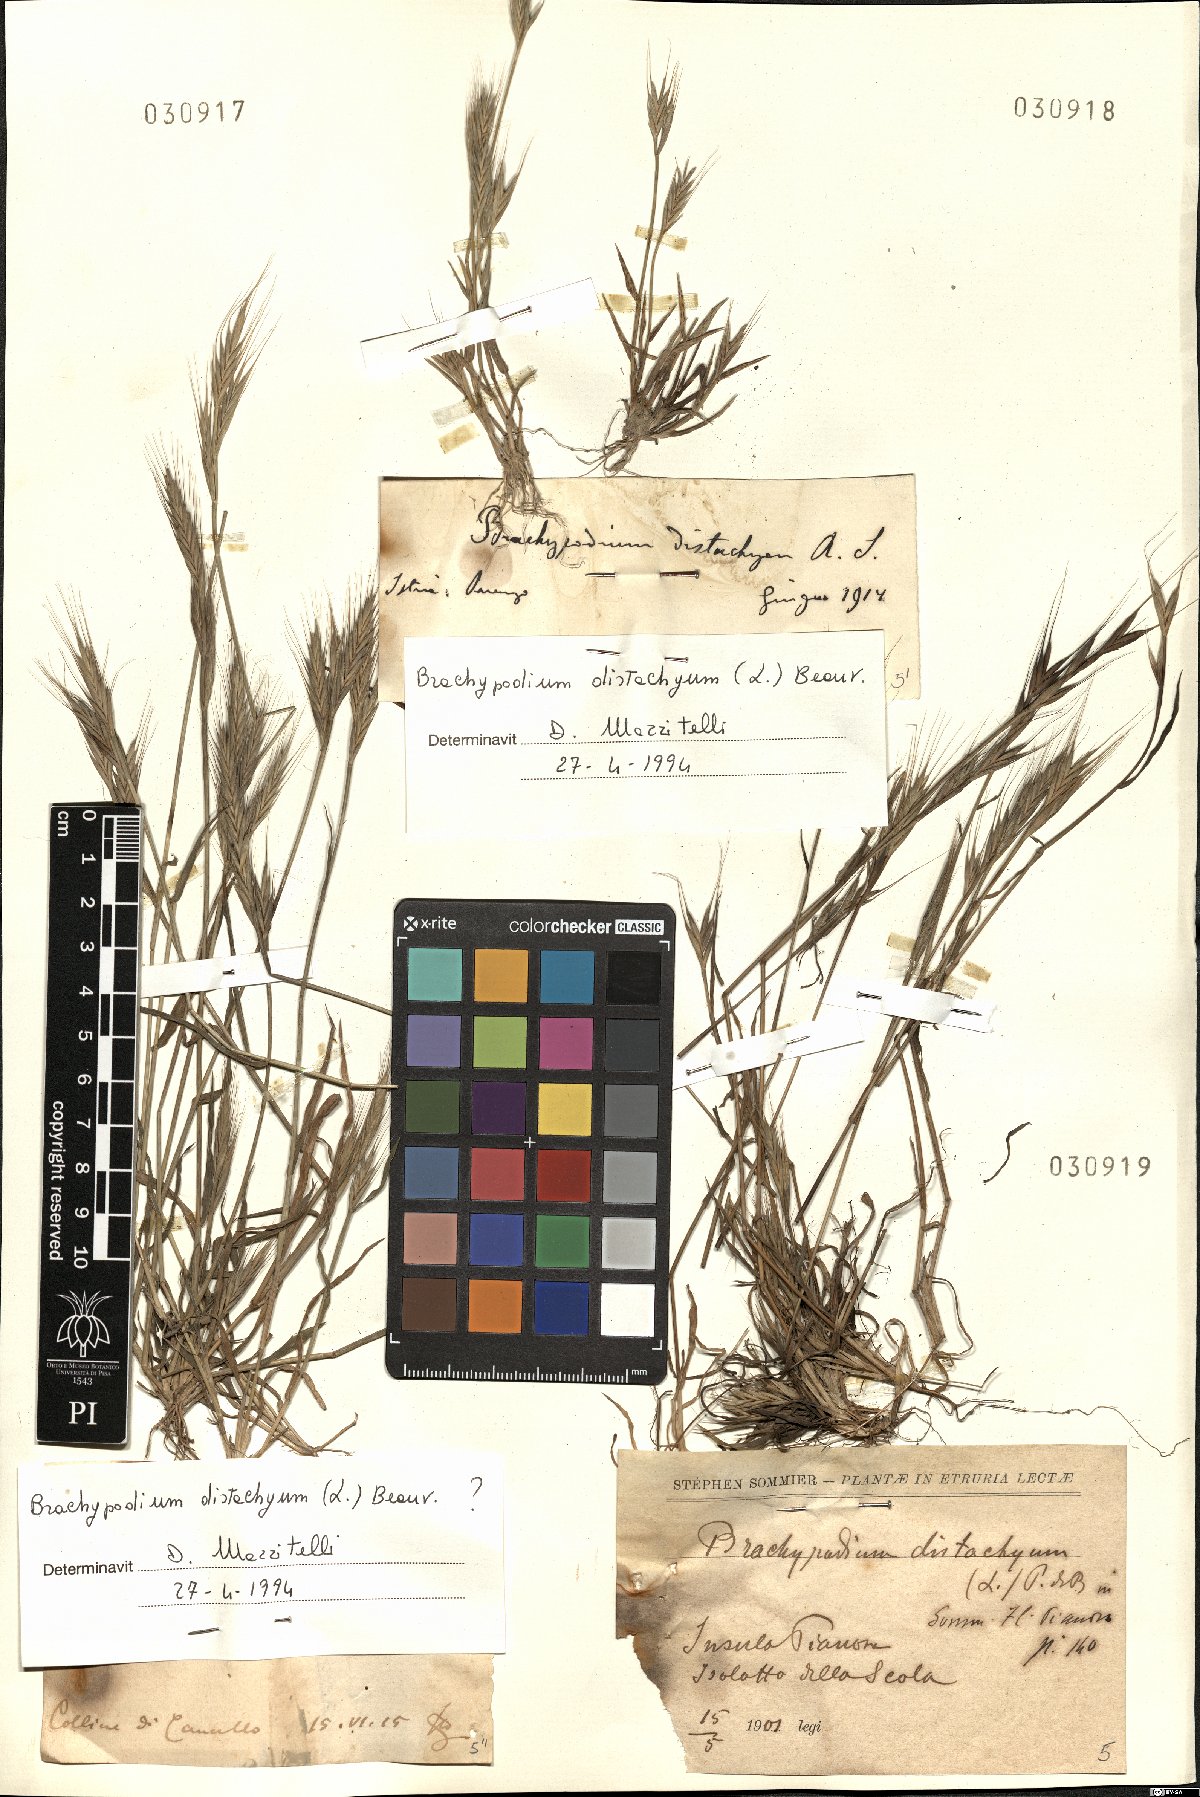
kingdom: Plantae
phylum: Tracheophyta
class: Liliopsida
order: Poales
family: Poaceae
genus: Brachypodium
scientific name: Brachypodium distachyon
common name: Stiff brome
